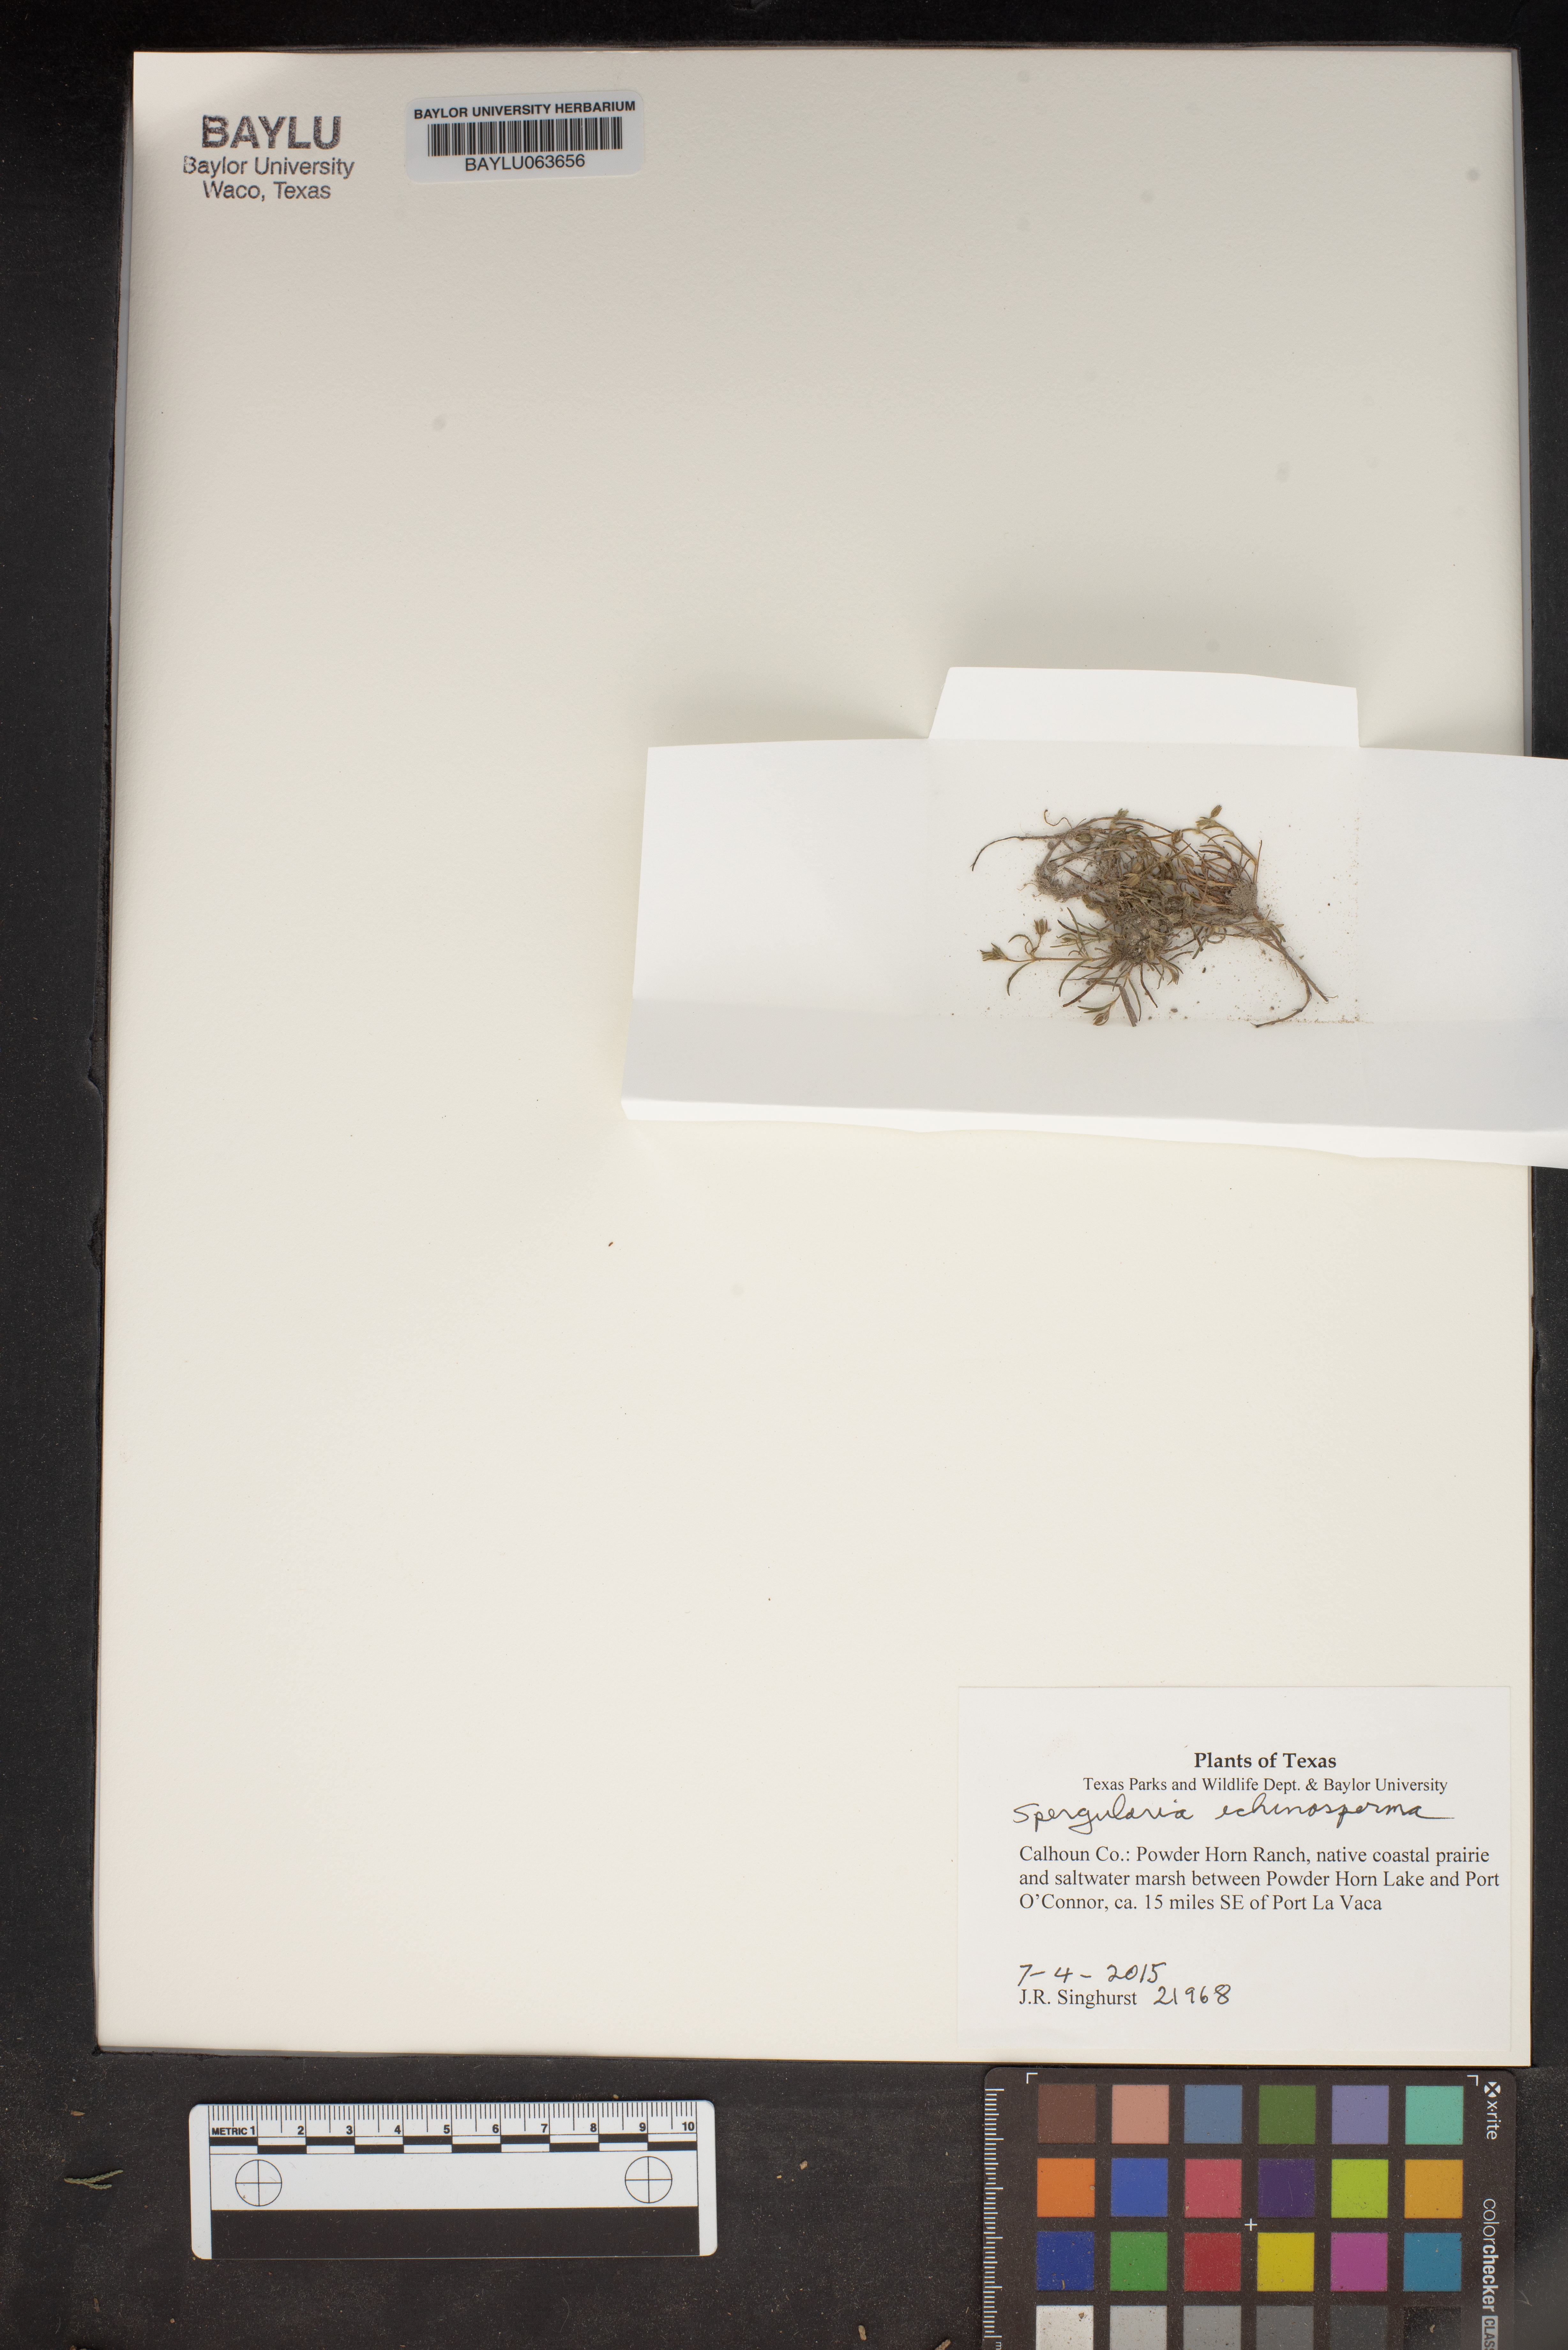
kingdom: Plantae
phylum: Tracheophyta
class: Magnoliopsida
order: Caryophyllales
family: Caryophyllaceae
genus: Spergularia
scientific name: Spergularia echinosperma
